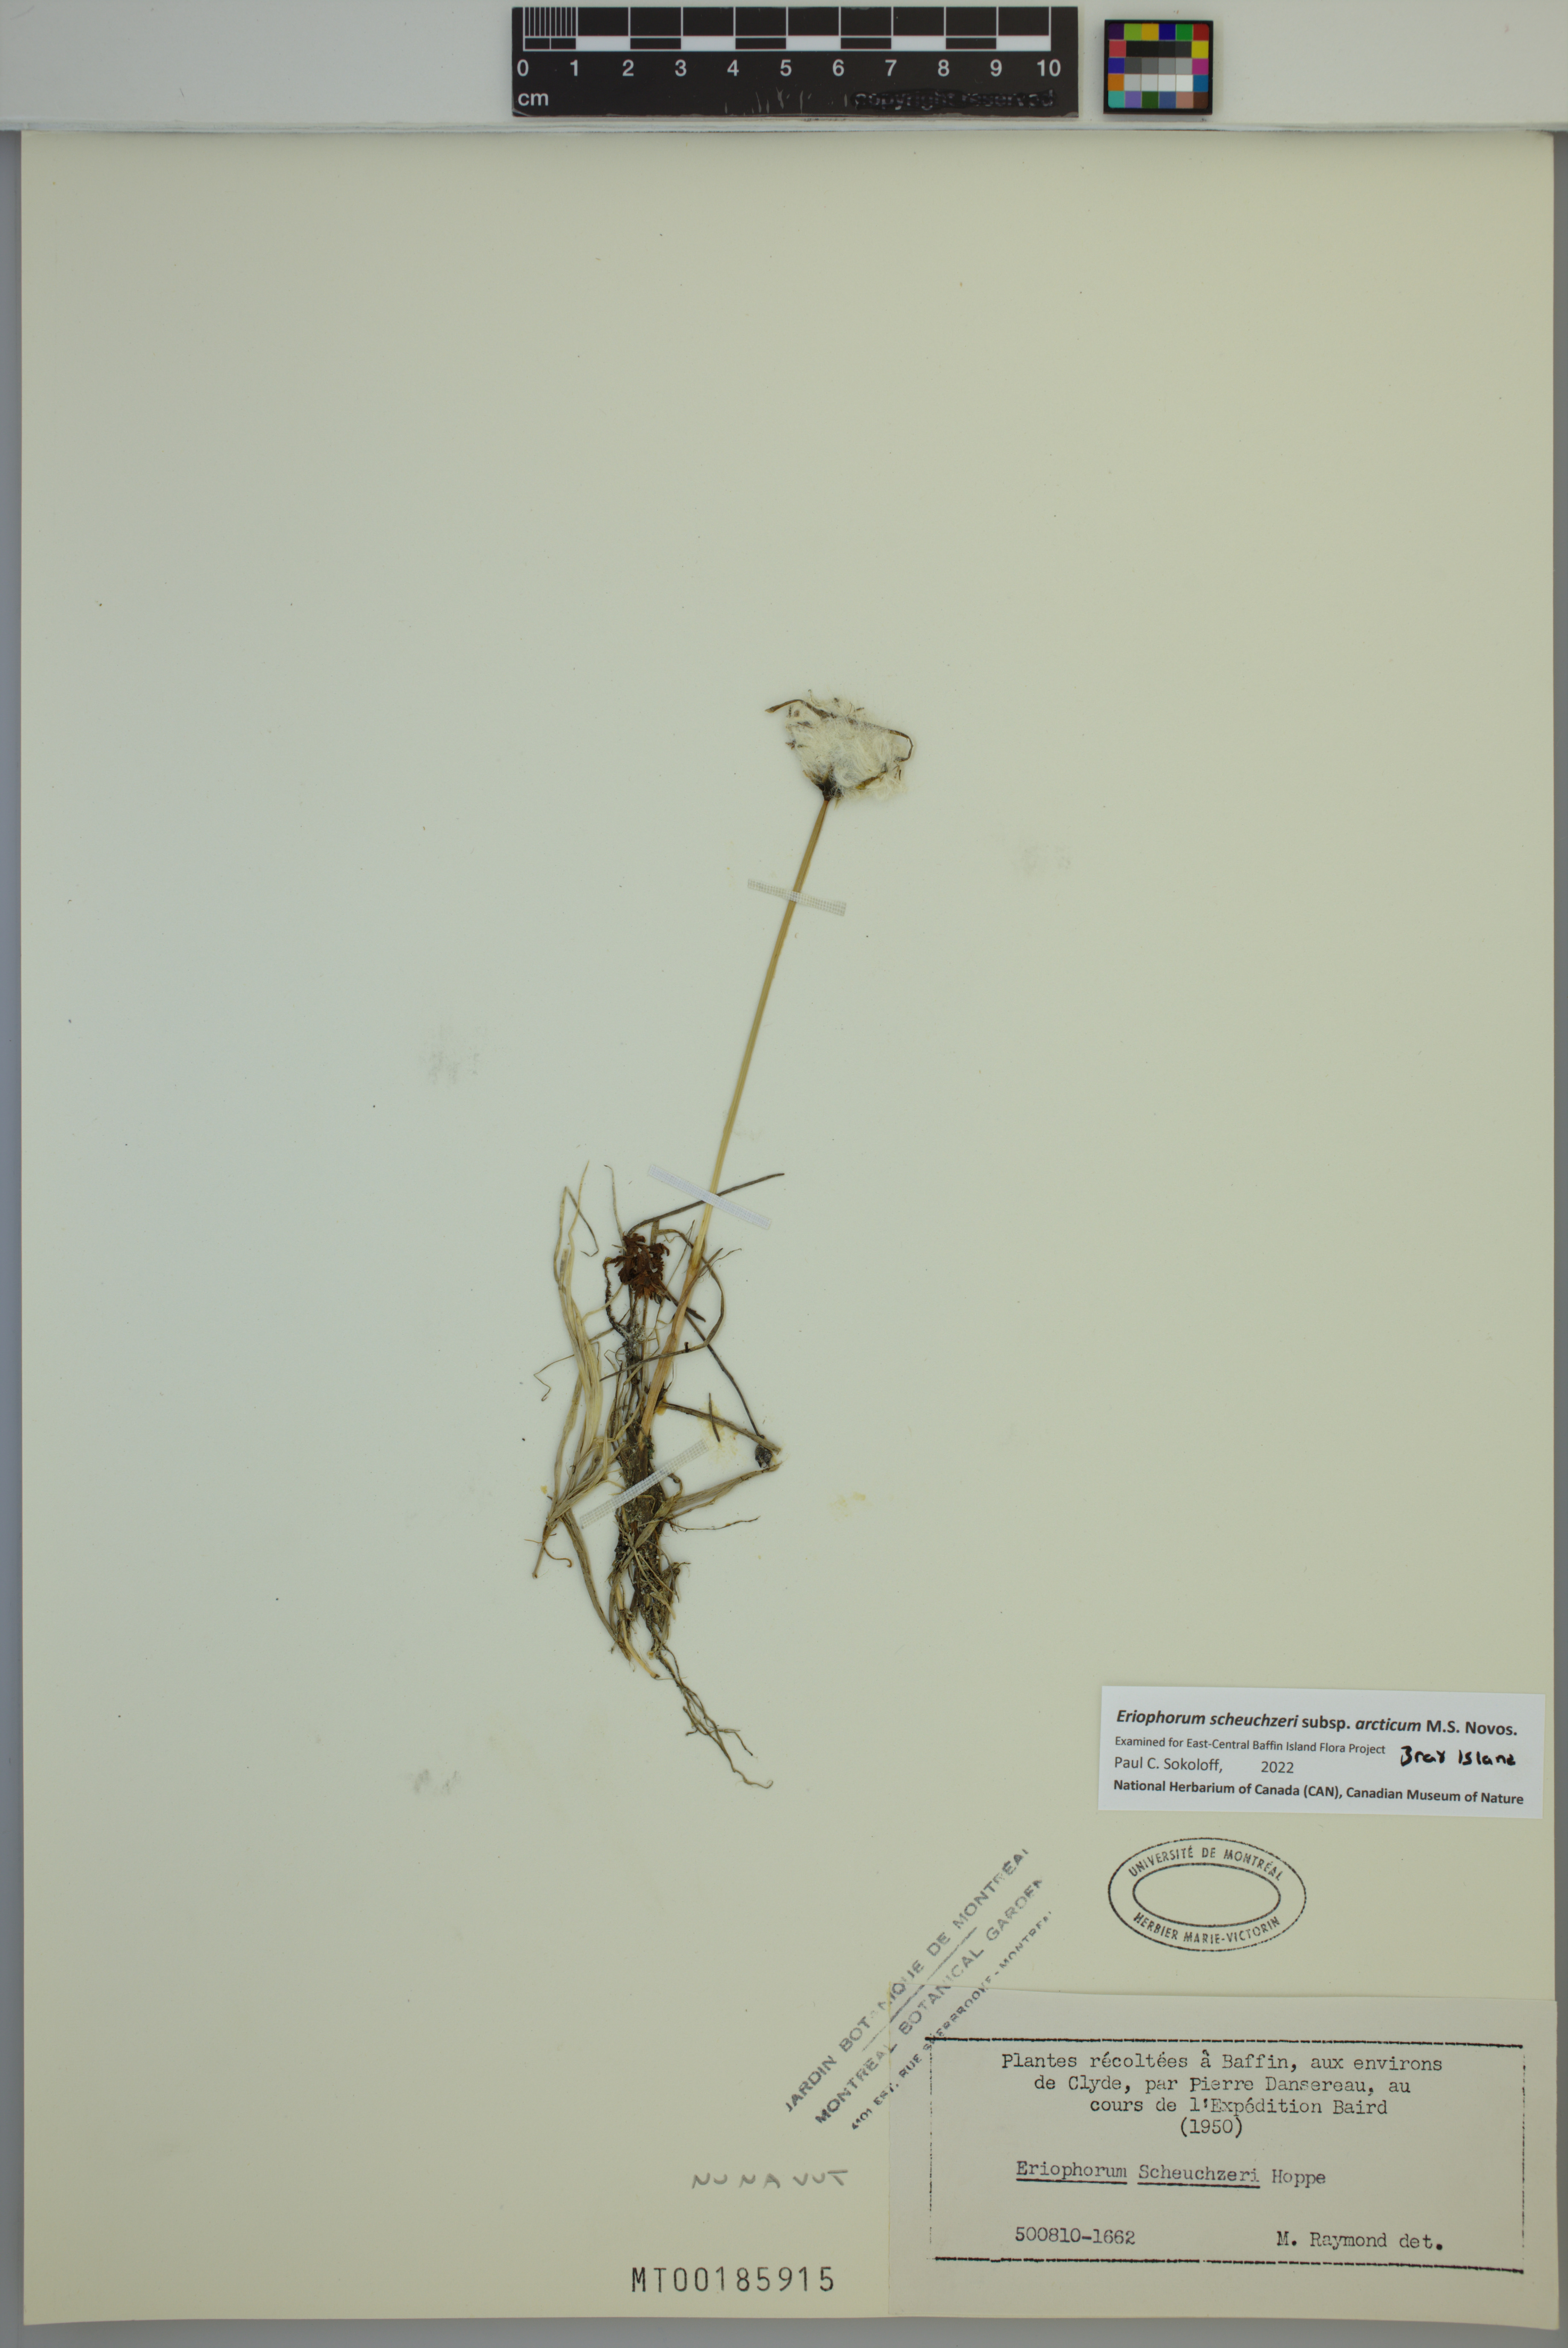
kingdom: Plantae
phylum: Tracheophyta
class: Liliopsida
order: Poales
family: Cyperaceae
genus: Eriophorum
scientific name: Eriophorum scheuchzeri
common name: Scheuchzer's cottongrass
